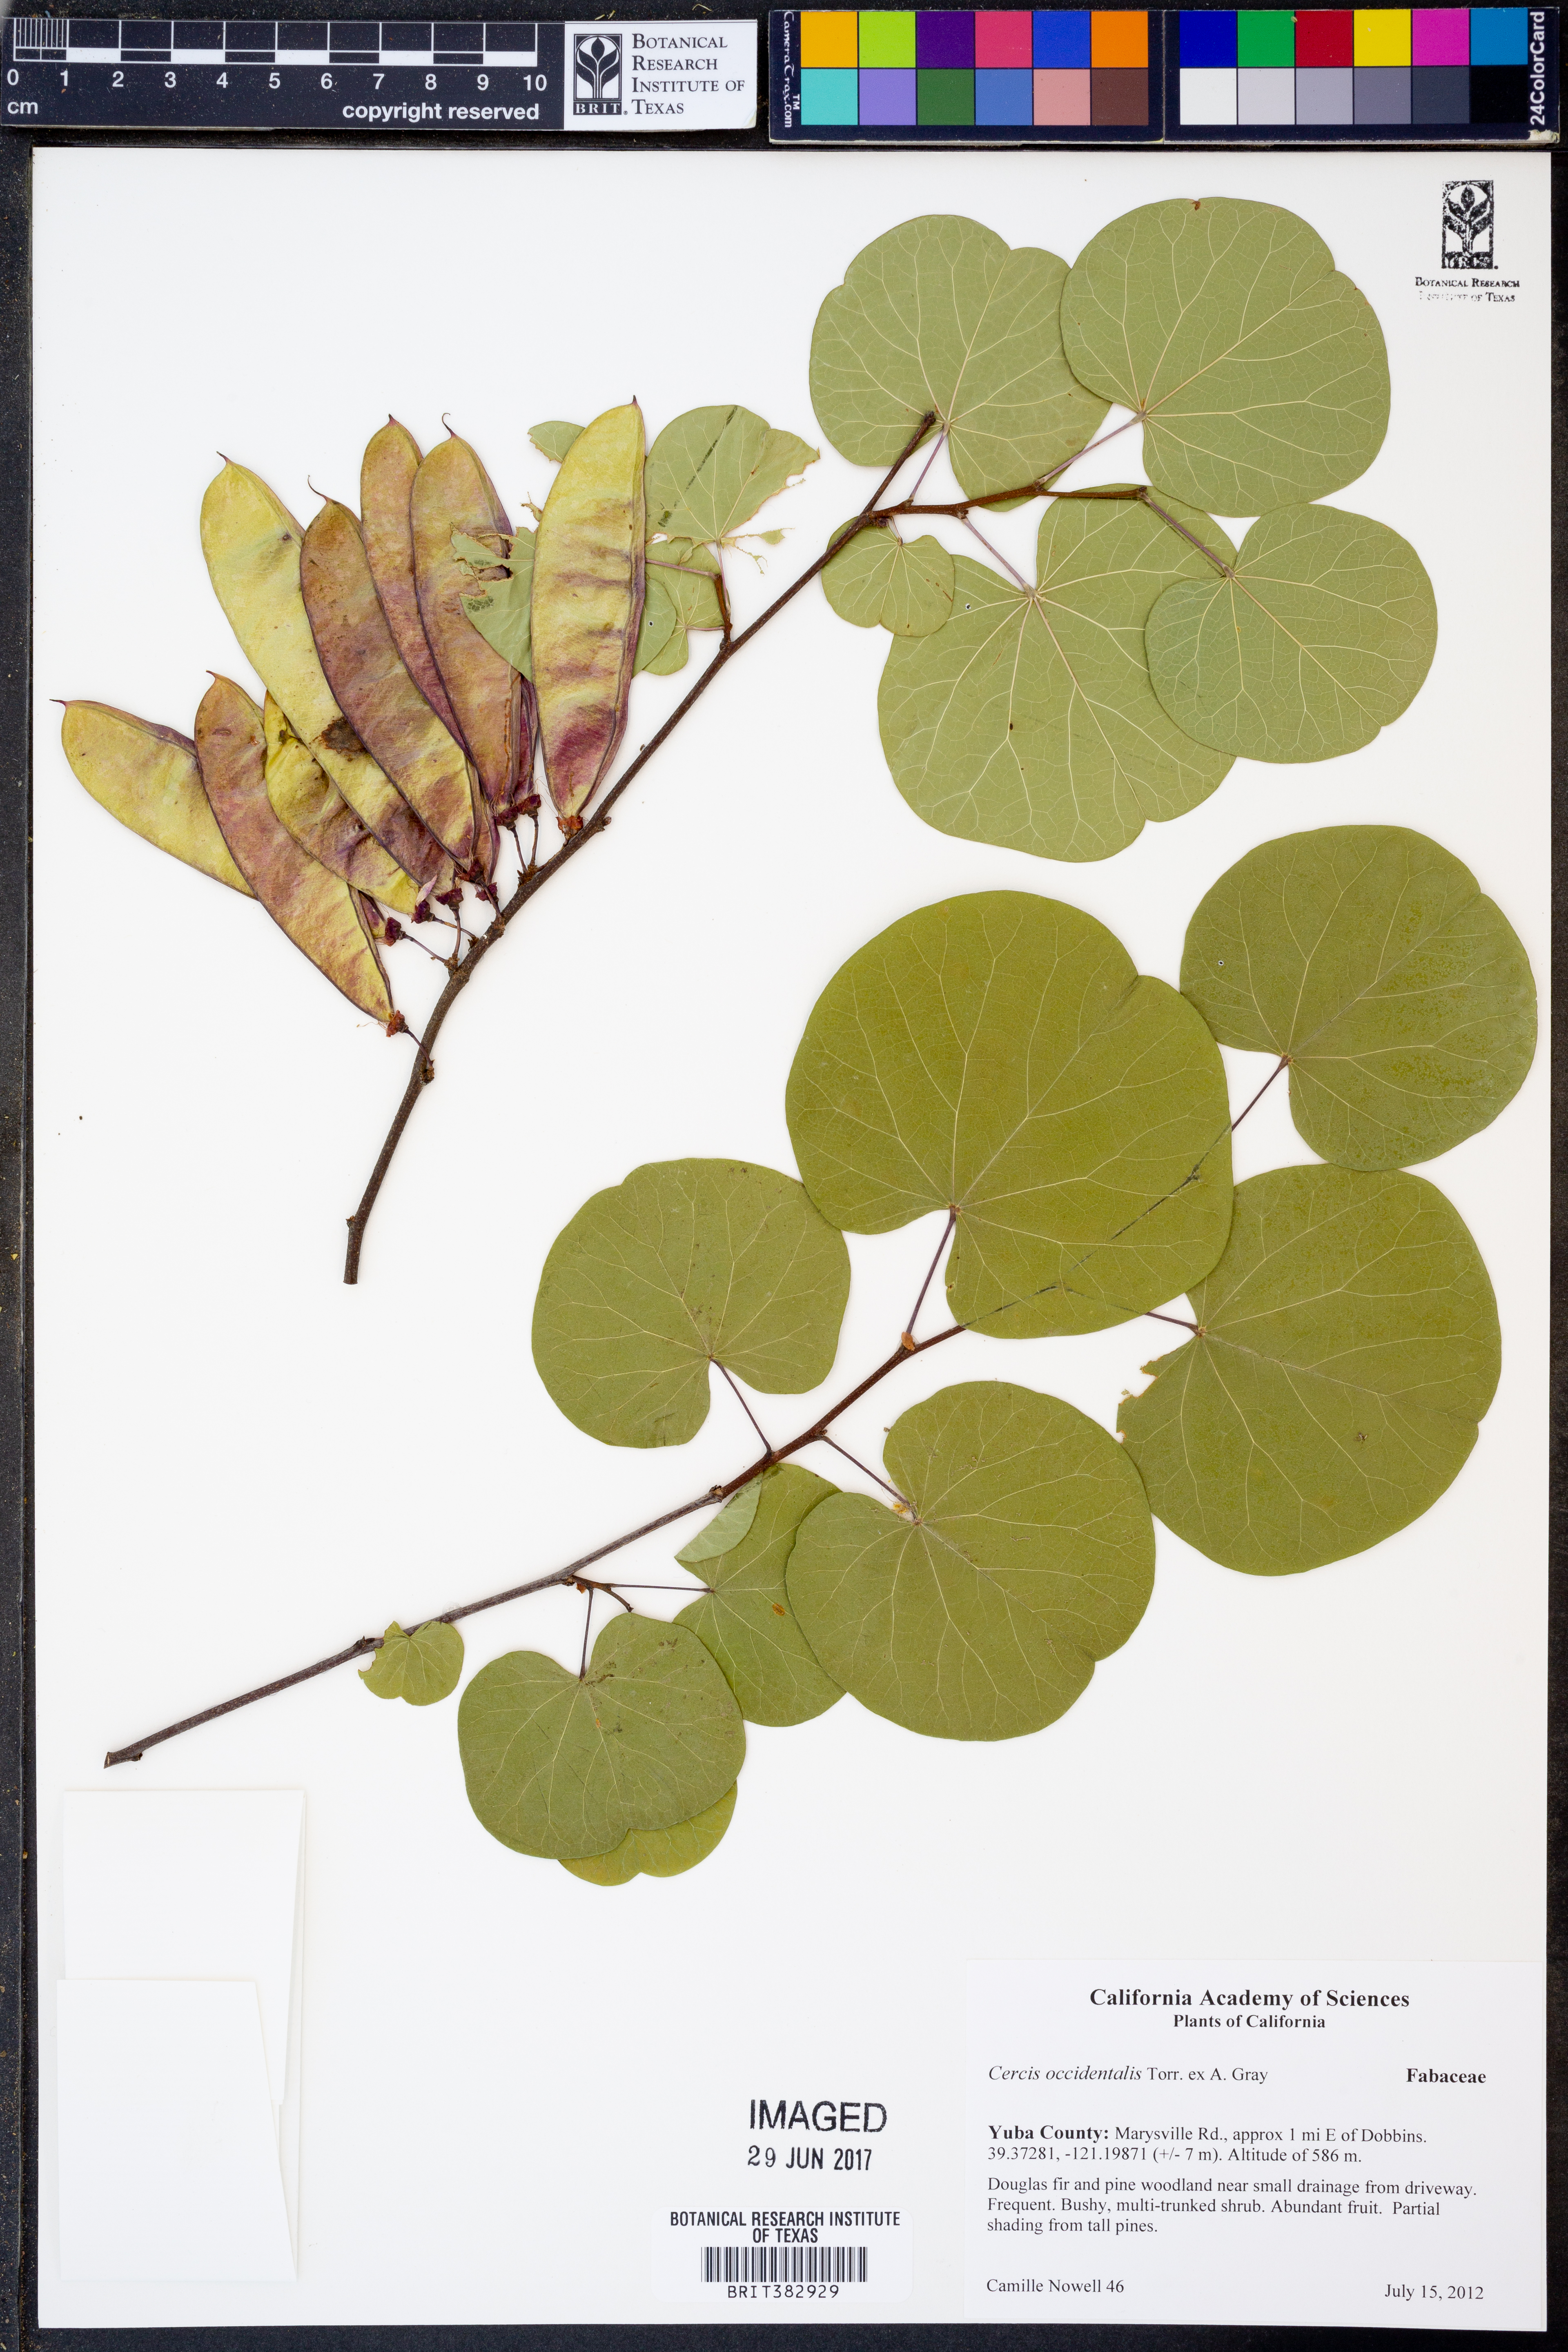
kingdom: Plantae
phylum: Tracheophyta
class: Magnoliopsida
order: Fabales
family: Fabaceae
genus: Cercis
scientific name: Cercis occidentalis
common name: California redbud
